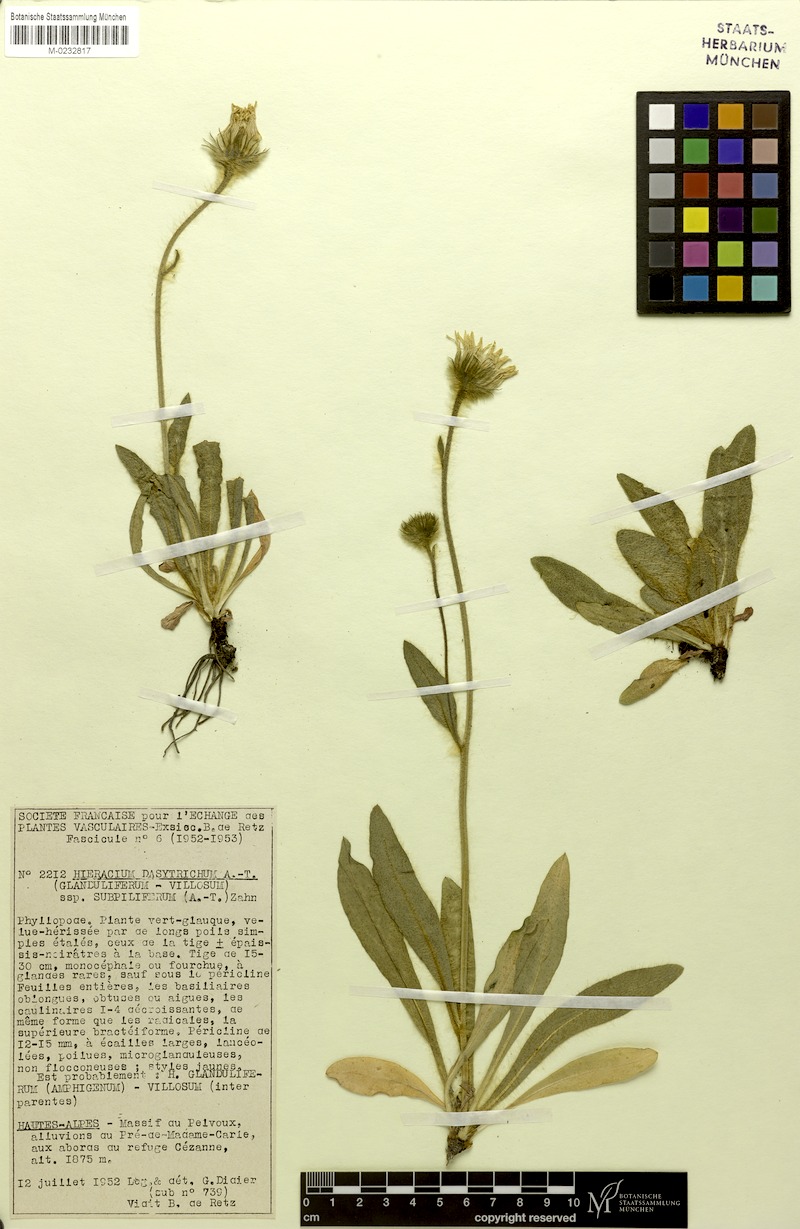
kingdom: Plantae
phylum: Tracheophyta
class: Magnoliopsida
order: Asterales
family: Asteraceae
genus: Hieracium
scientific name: Hieracium dasytrichum
